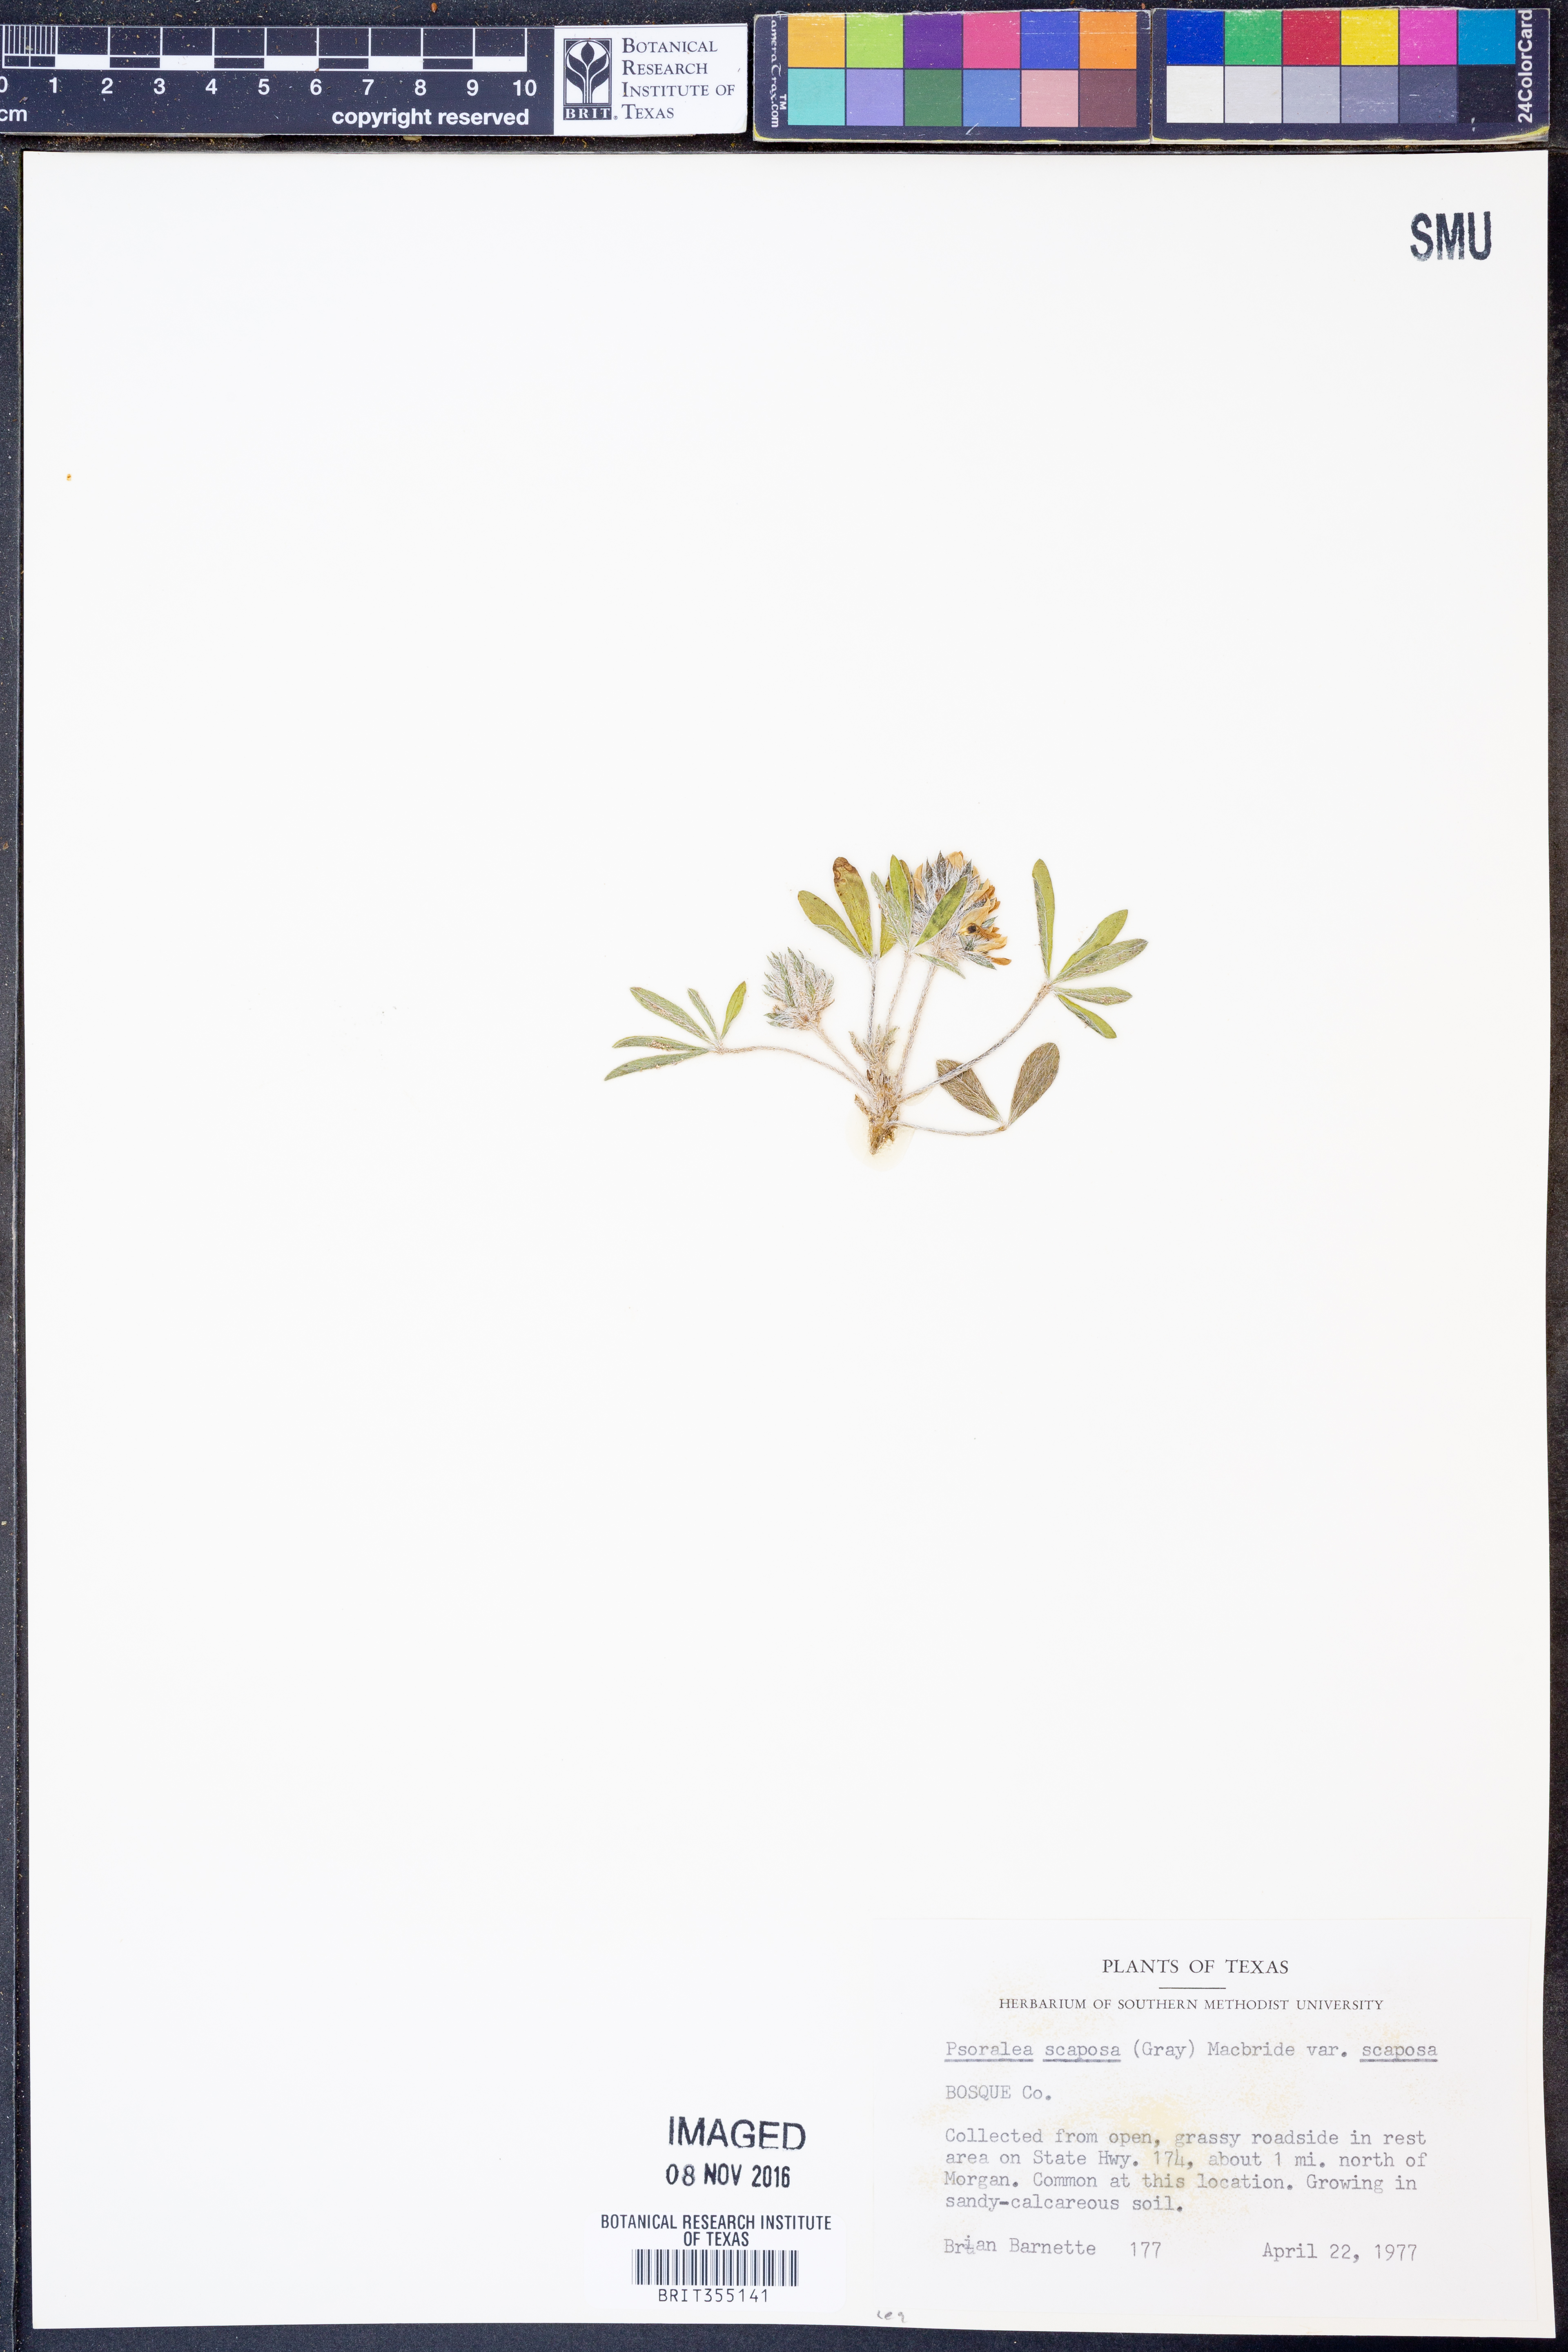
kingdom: Plantae
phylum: Tracheophyta
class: Magnoliopsida
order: Fabales
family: Fabaceae
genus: Pediomelum
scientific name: Pediomelum hypogaeum
